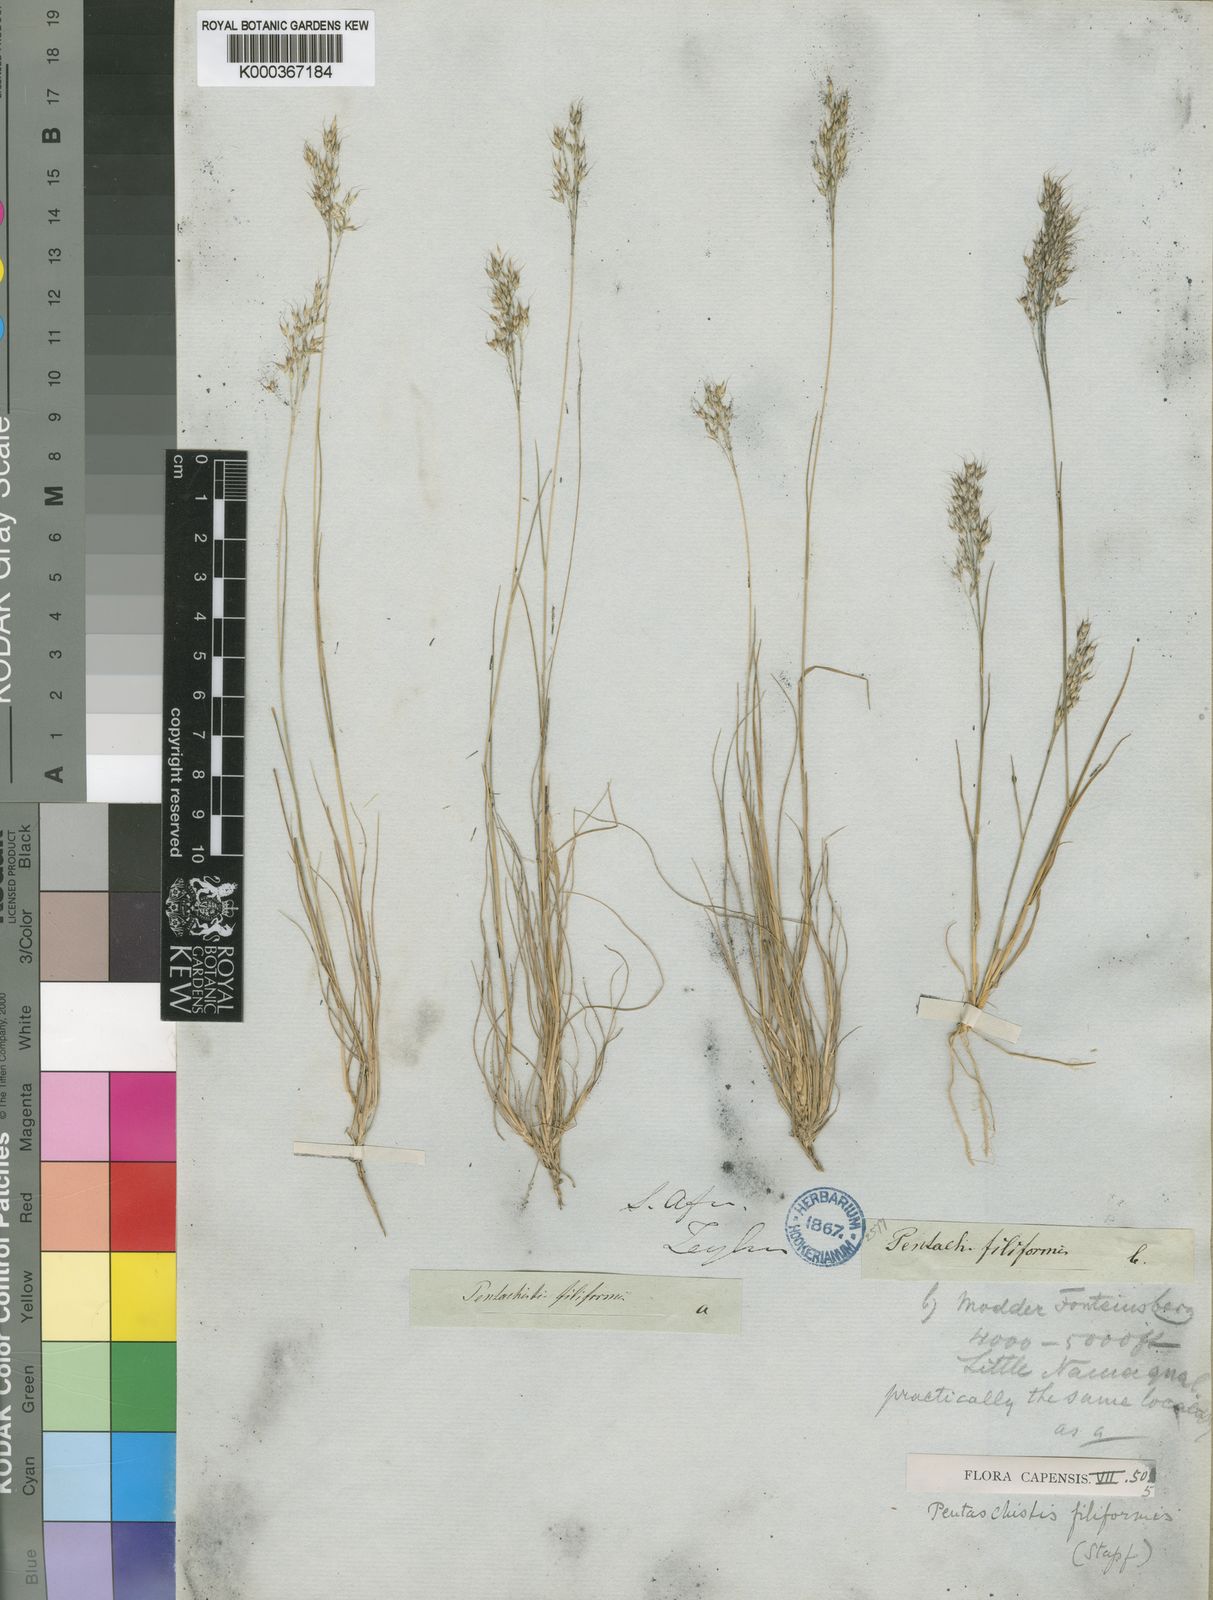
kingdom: Plantae
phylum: Tracheophyta
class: Liliopsida
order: Poales
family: Poaceae
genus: Pentameris
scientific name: Pentameris pallida
